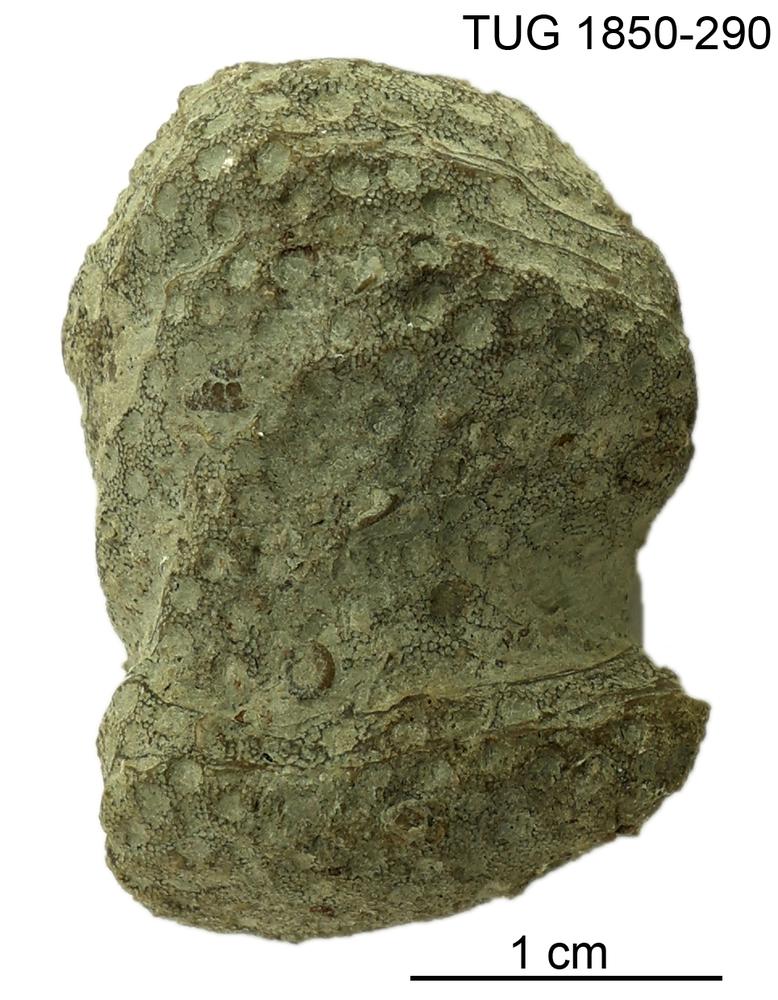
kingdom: Animalia
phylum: Cnidaria
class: Anthozoa
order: Heliolitina
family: Heliolitidae
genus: Heliolites
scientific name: Heliolites
